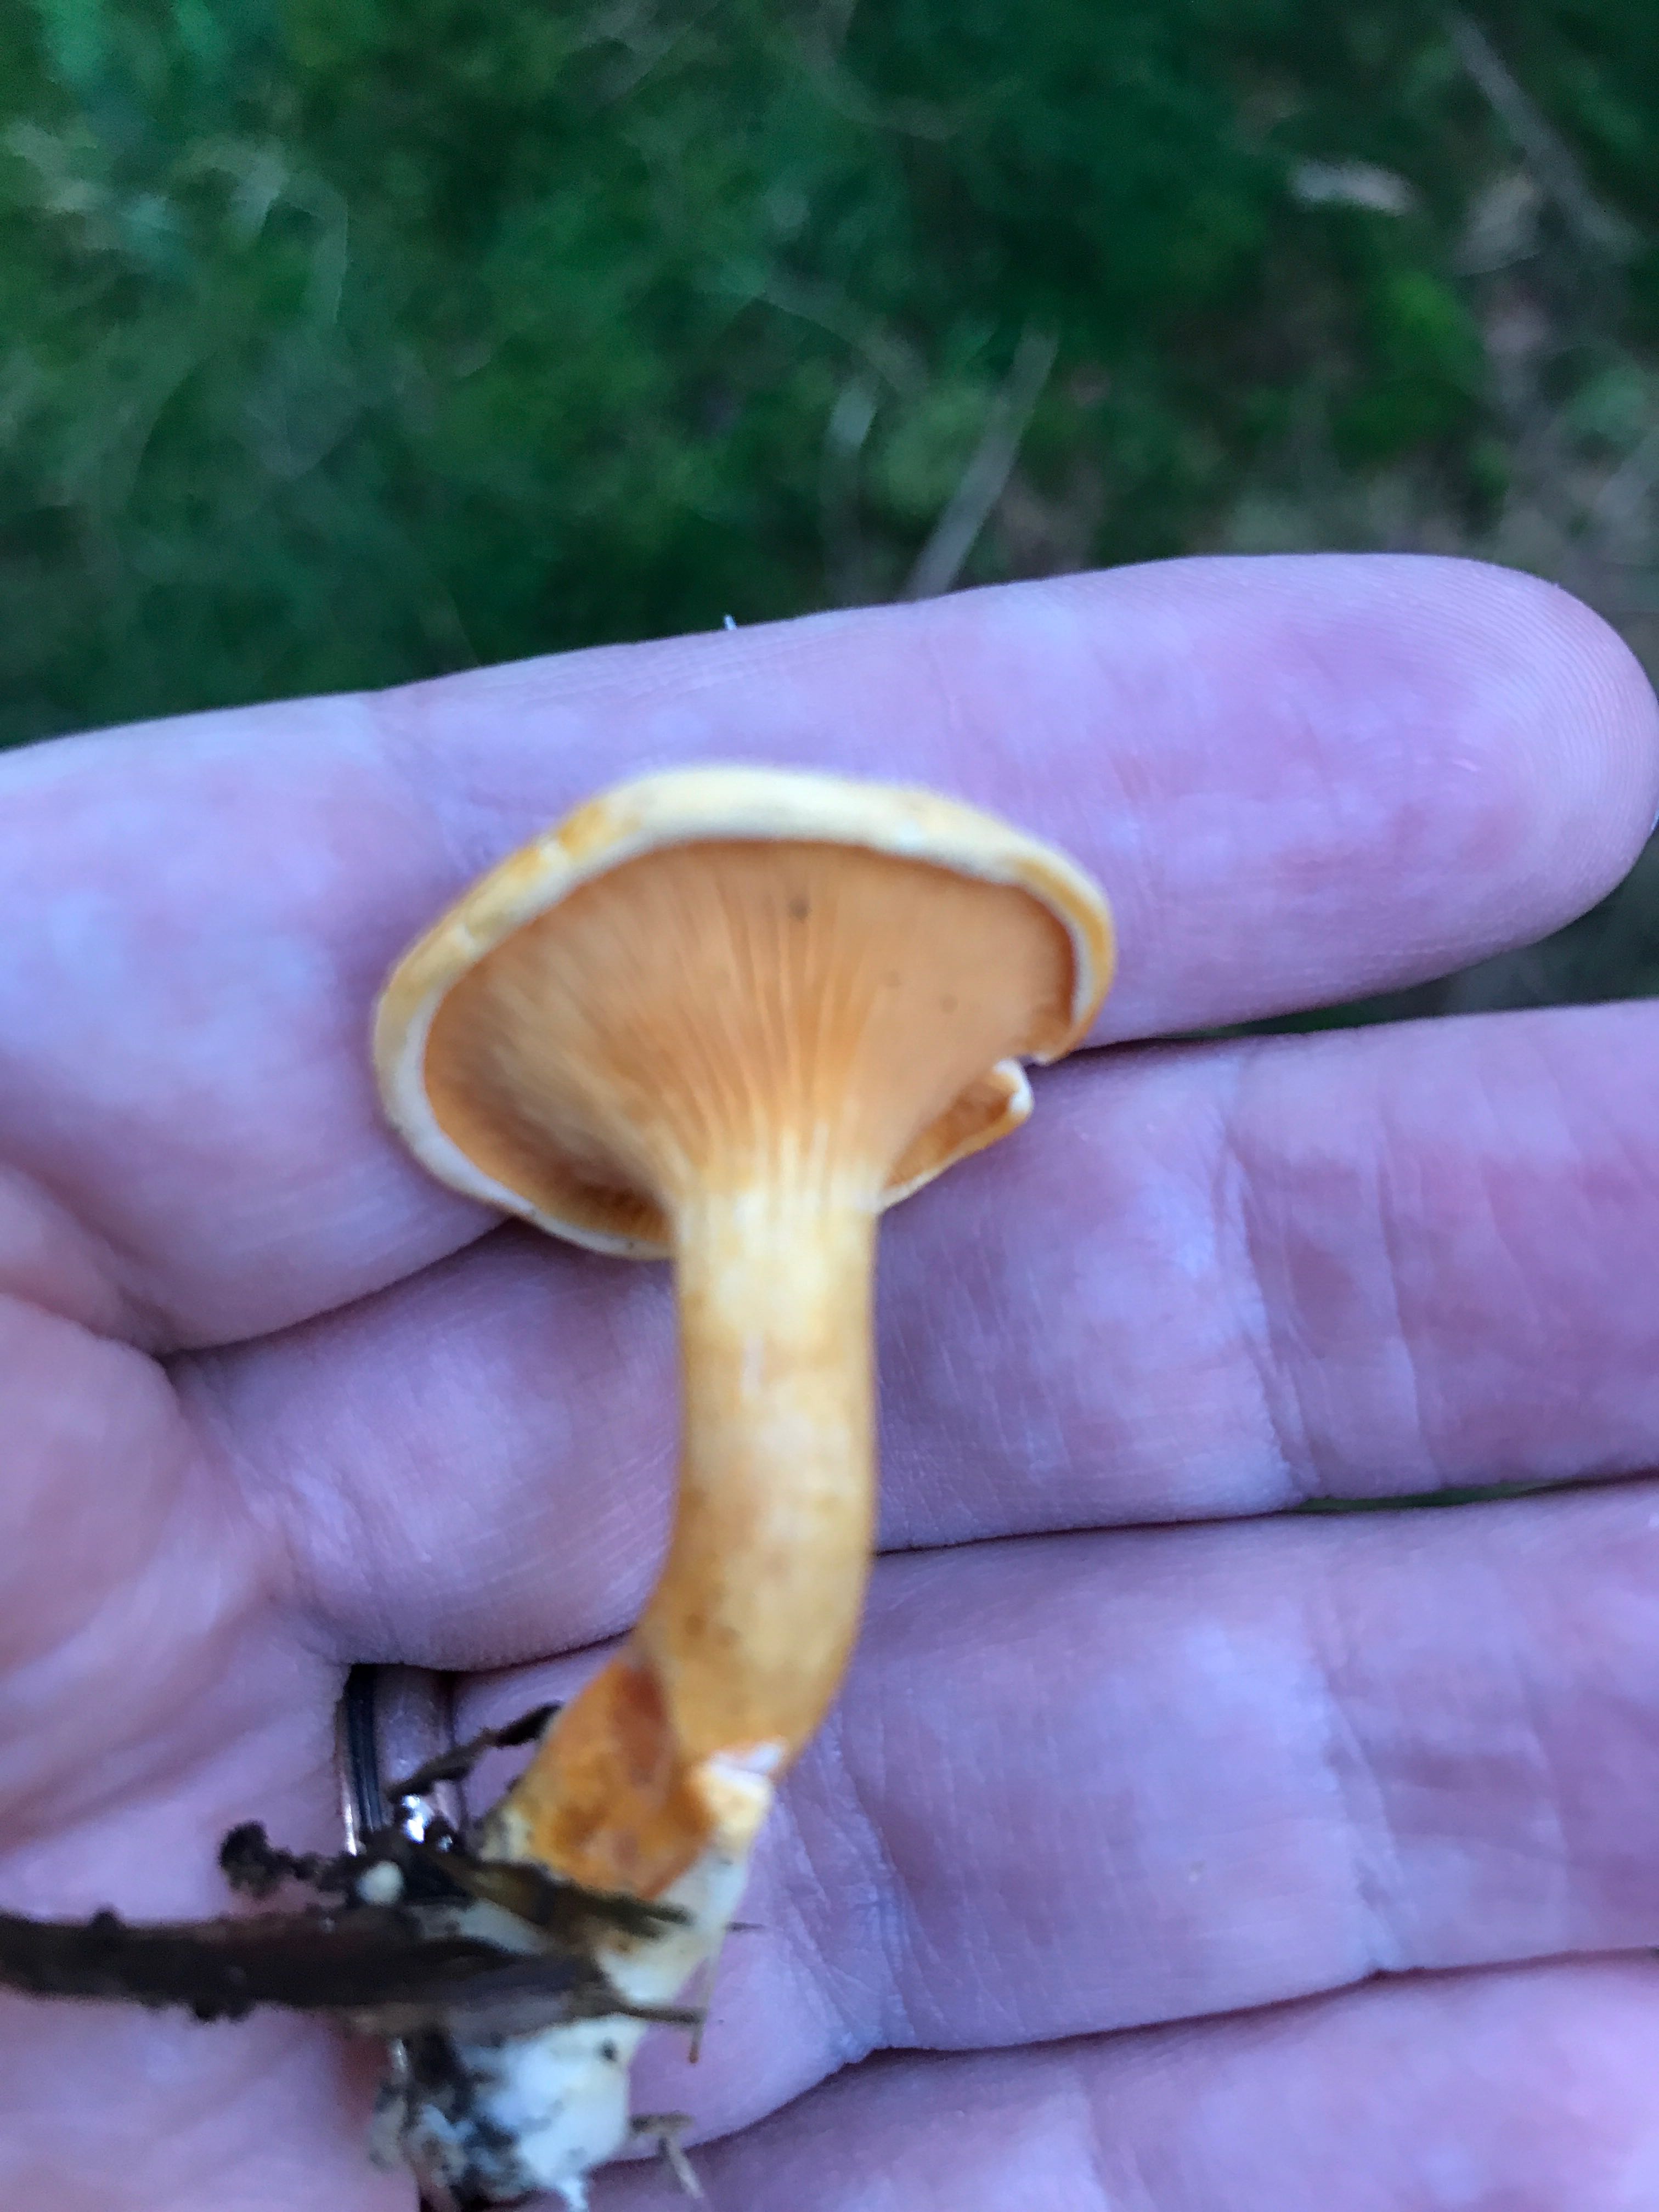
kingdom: Fungi
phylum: Basidiomycota
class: Agaricomycetes
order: Boletales
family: Hygrophoropsidaceae
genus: Hygrophoropsis
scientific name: Hygrophoropsis aurantiaca
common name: almindelig orangekantarel
